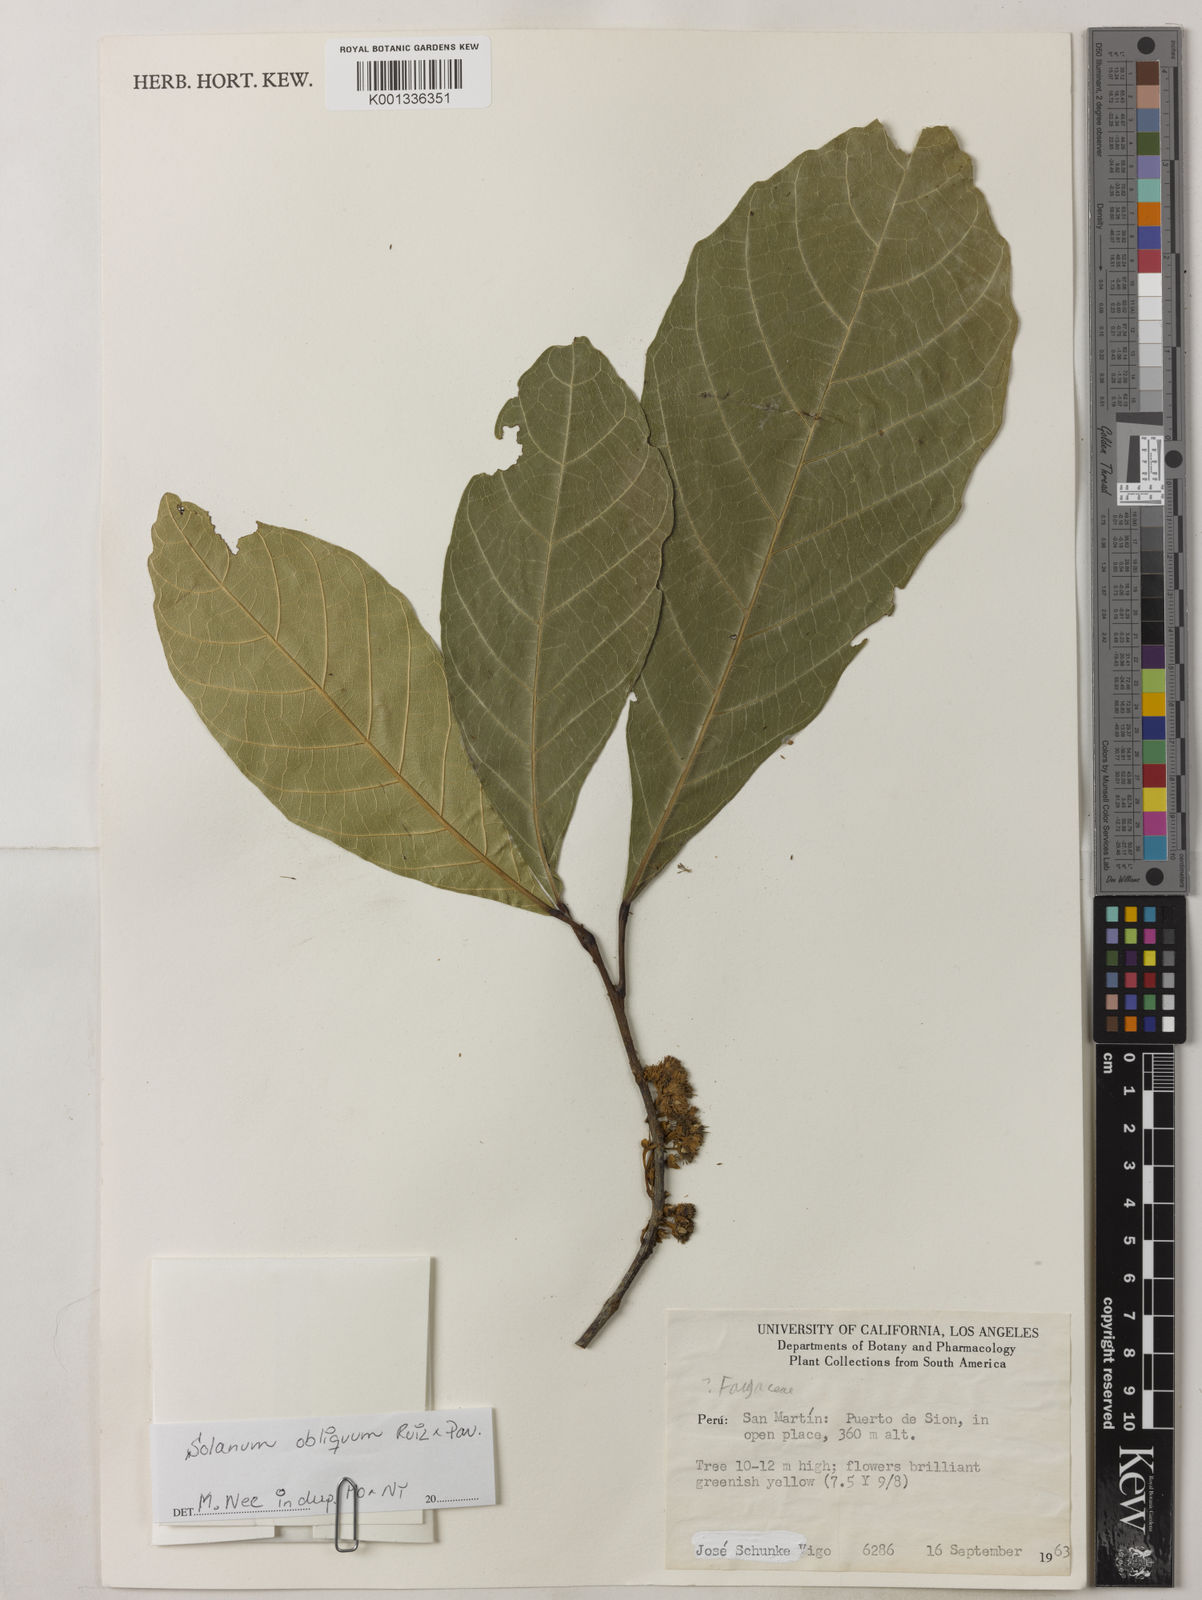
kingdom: Plantae
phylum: Tracheophyta
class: Magnoliopsida
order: Oxalidales
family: Elaeocarpaceae
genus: Sloanea
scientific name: Sloanea guianensis
